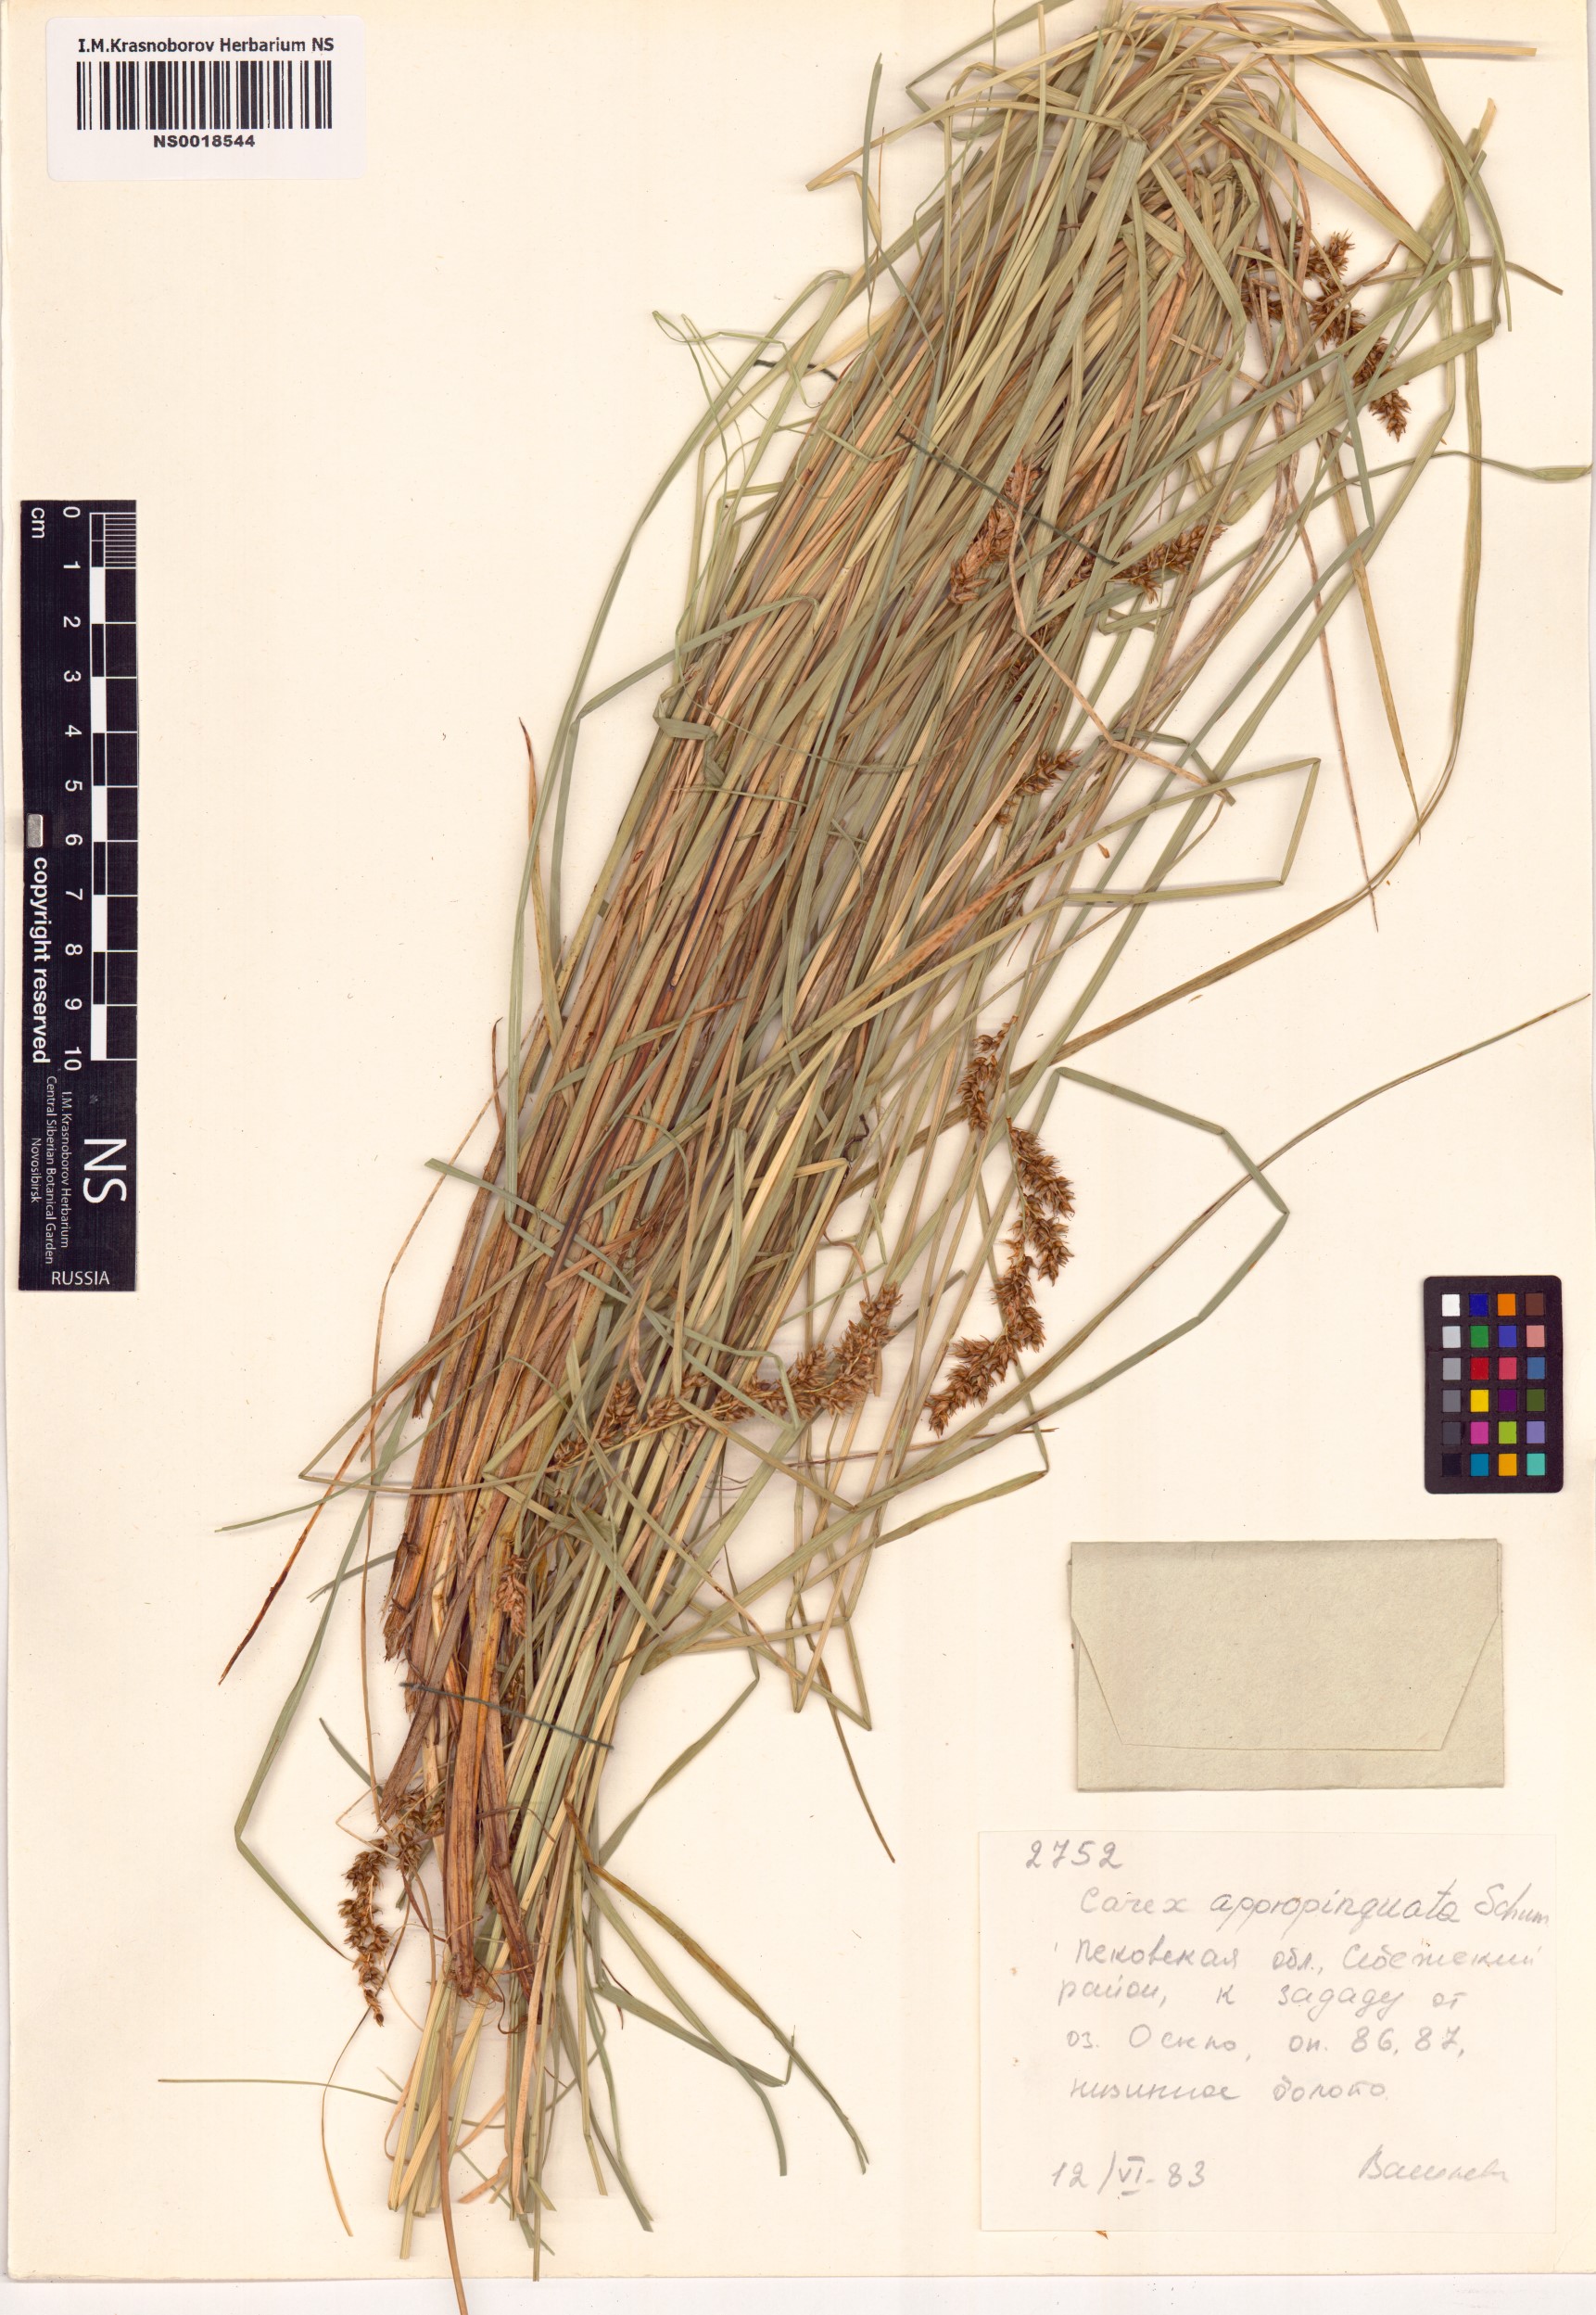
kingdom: Plantae
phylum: Tracheophyta
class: Liliopsida
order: Poales
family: Cyperaceae
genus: Carex
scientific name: Carex appropinquata
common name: Fibrous tussock-sedge
